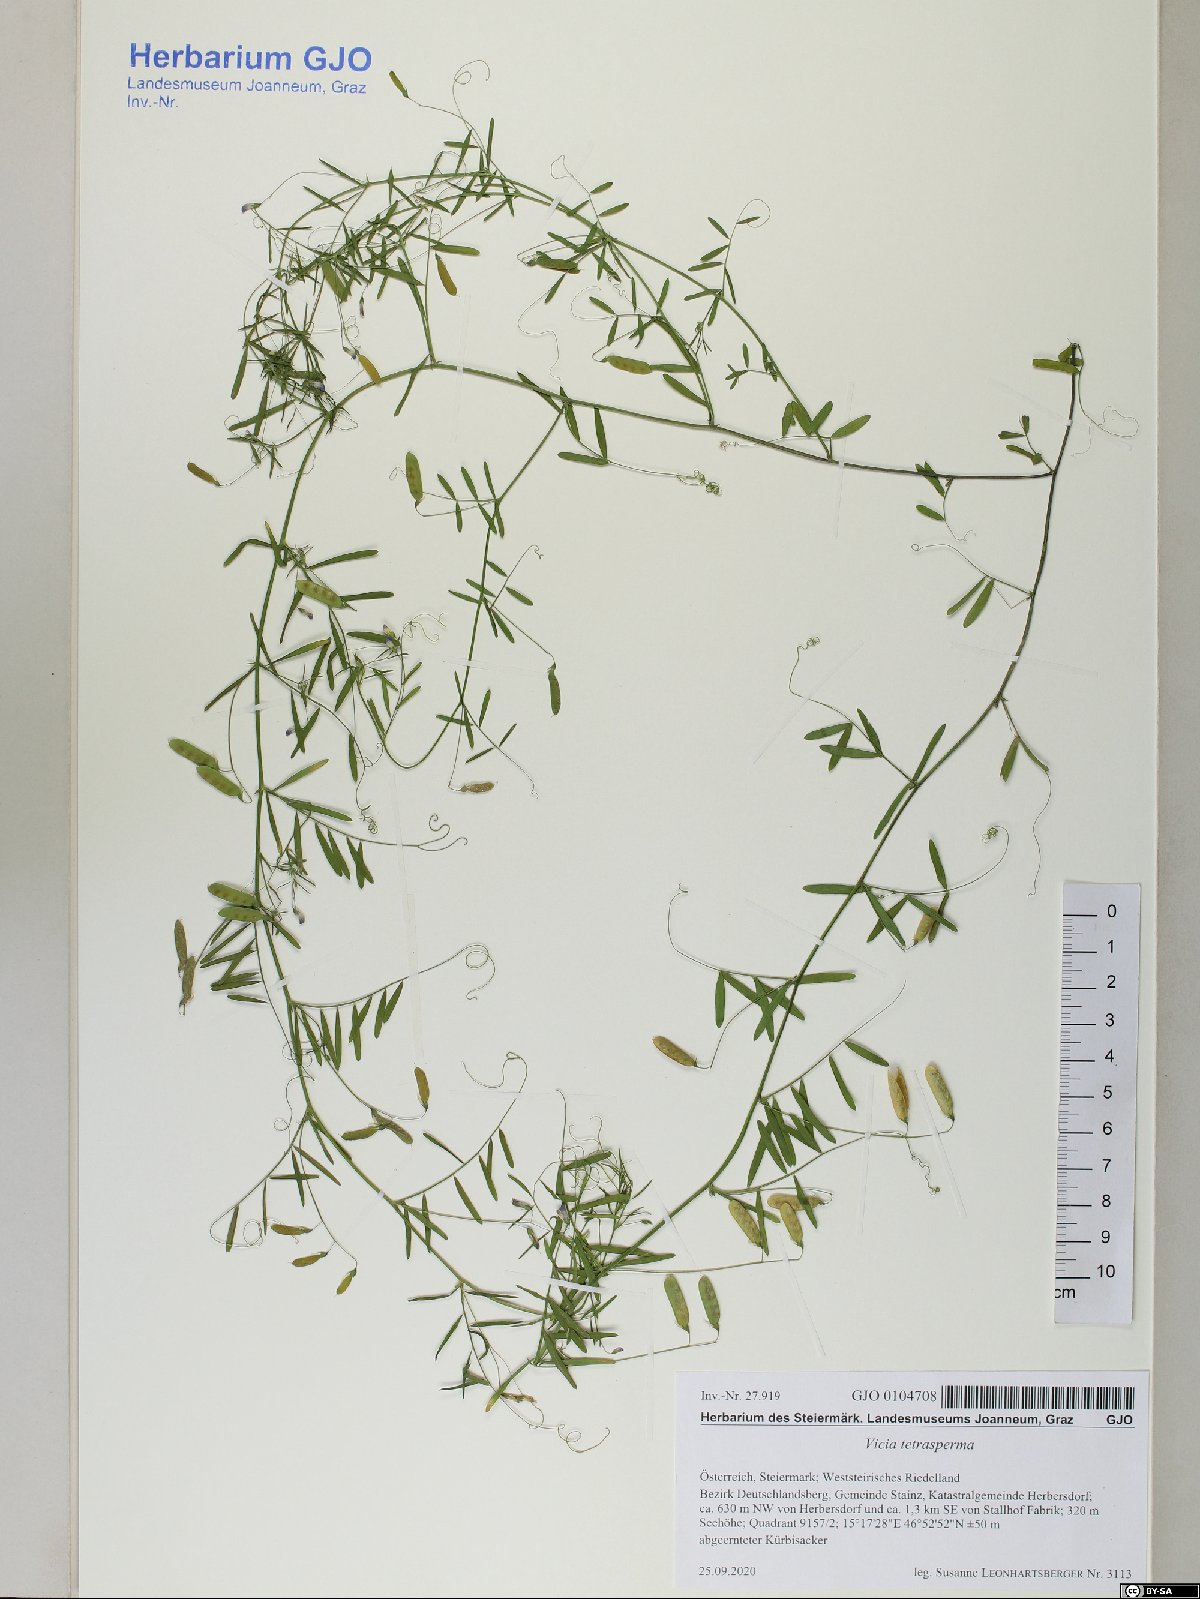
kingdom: Plantae
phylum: Tracheophyta
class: Magnoliopsida
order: Fabales
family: Fabaceae
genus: Vicia
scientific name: Vicia tetrasperma
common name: Smooth tare
